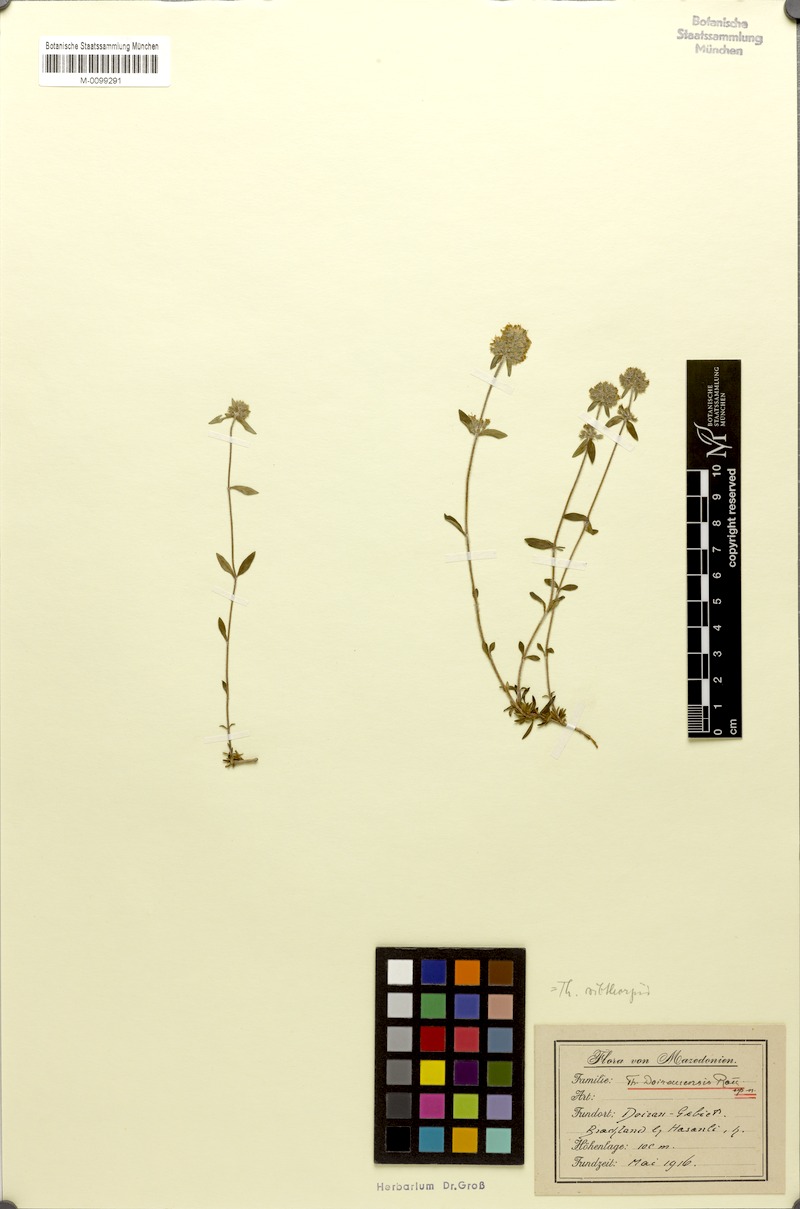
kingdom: Plantae
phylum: Tracheophyta
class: Magnoliopsida
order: Lamiales
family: Lamiaceae
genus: Thymus
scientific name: Thymus sibthorpii
